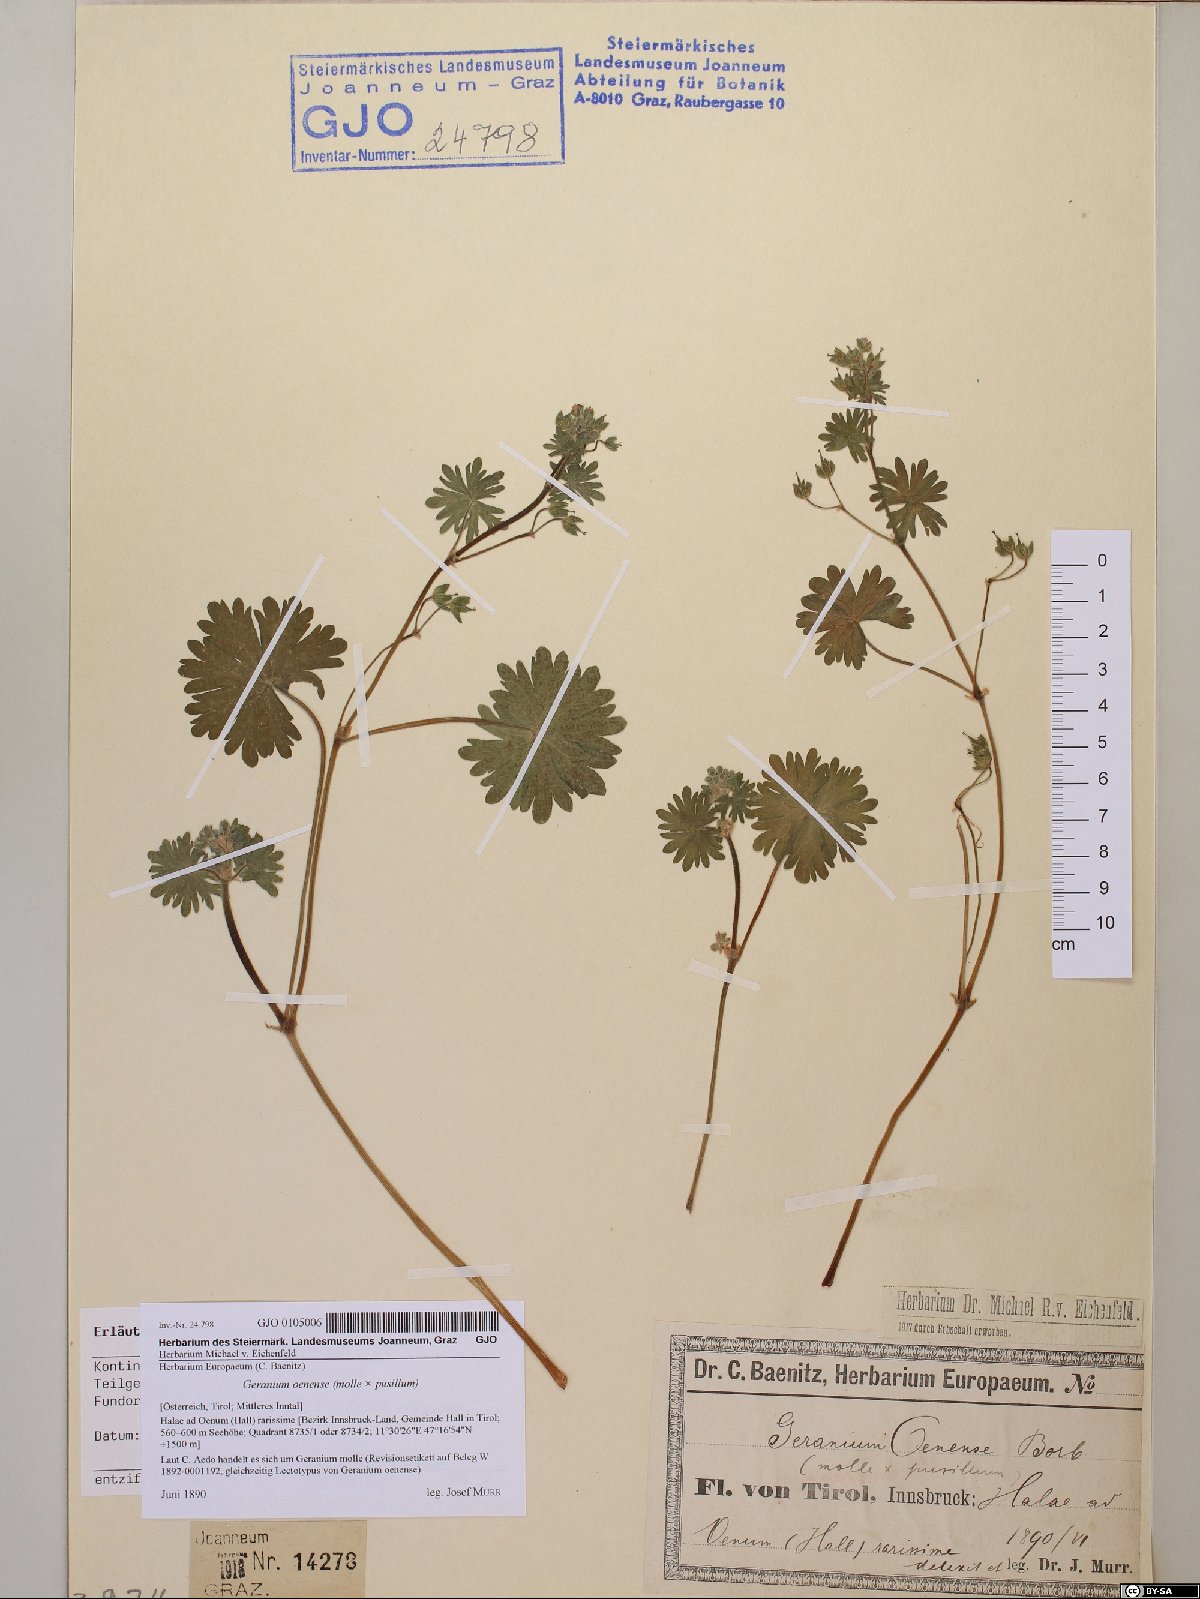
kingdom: Plantae
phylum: Tracheophyta
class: Magnoliopsida
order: Geraniales
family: Geraniaceae
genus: Geranium
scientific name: Geranium molle
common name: Dove's-foot crane's-bill
